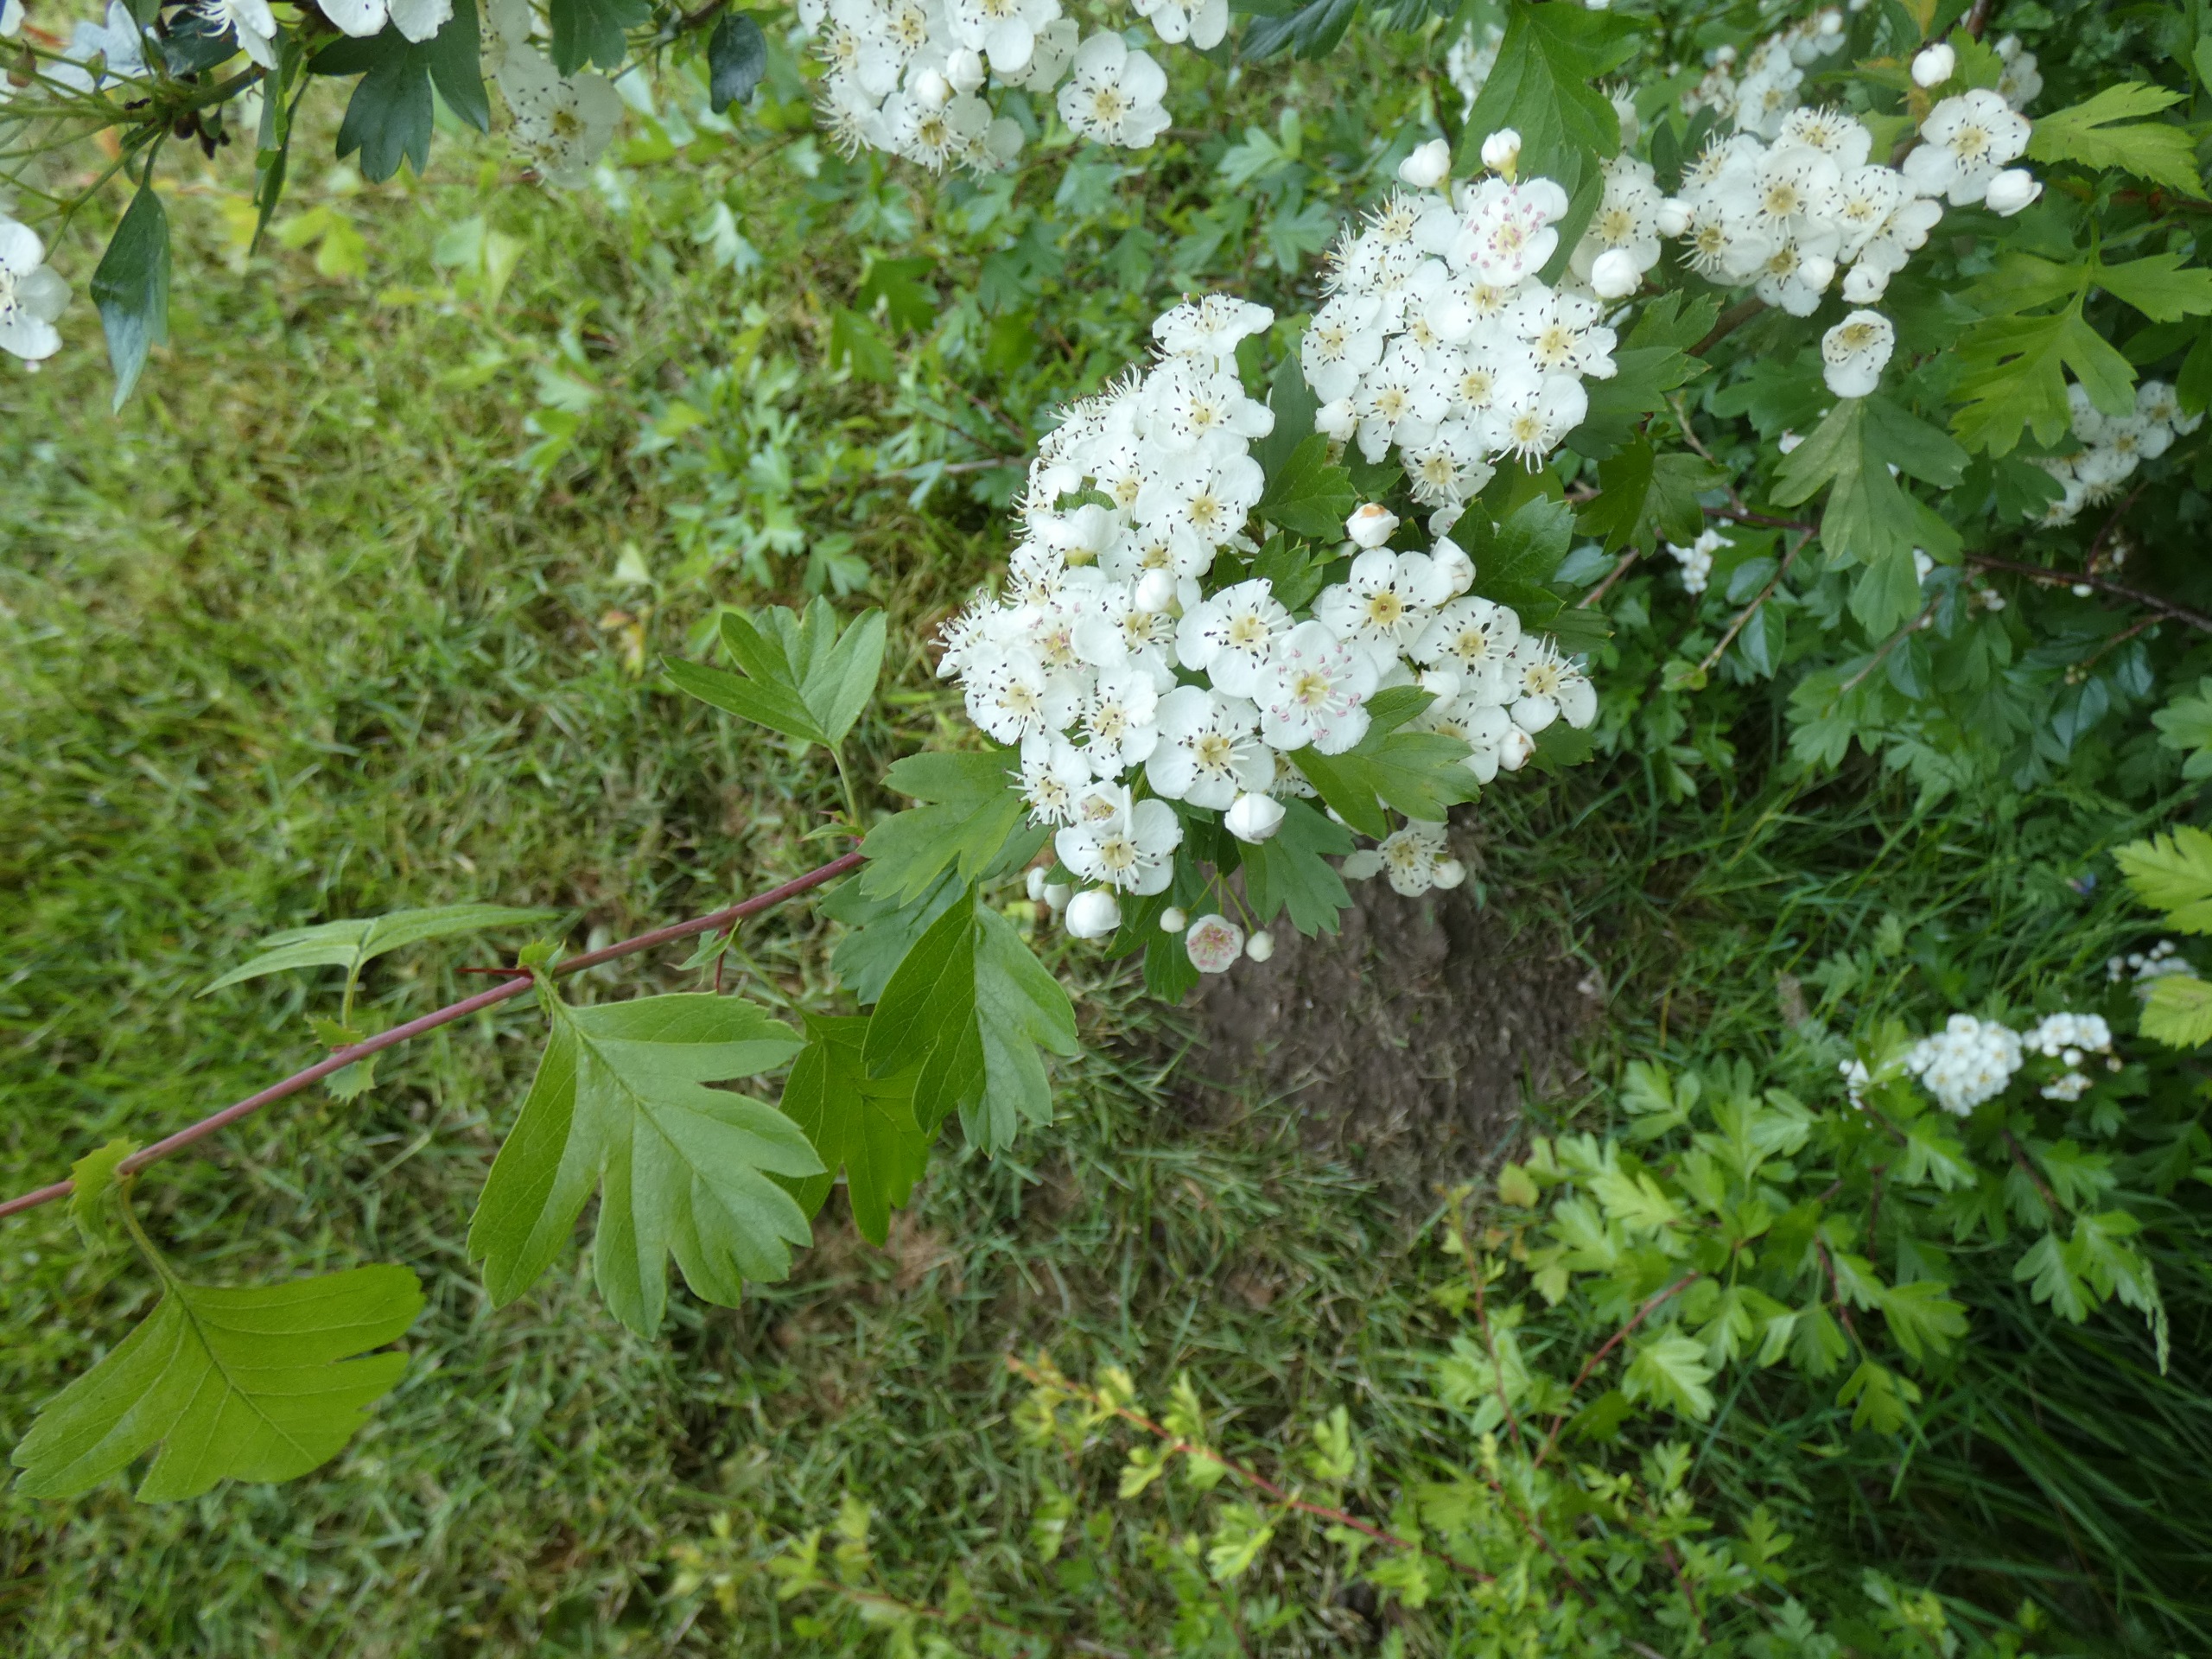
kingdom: Plantae
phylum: Tracheophyta
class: Magnoliopsida
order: Rosales
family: Rosaceae
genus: Crataegus
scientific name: Crataegus monogyna
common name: Engriflet hvidtjørn
